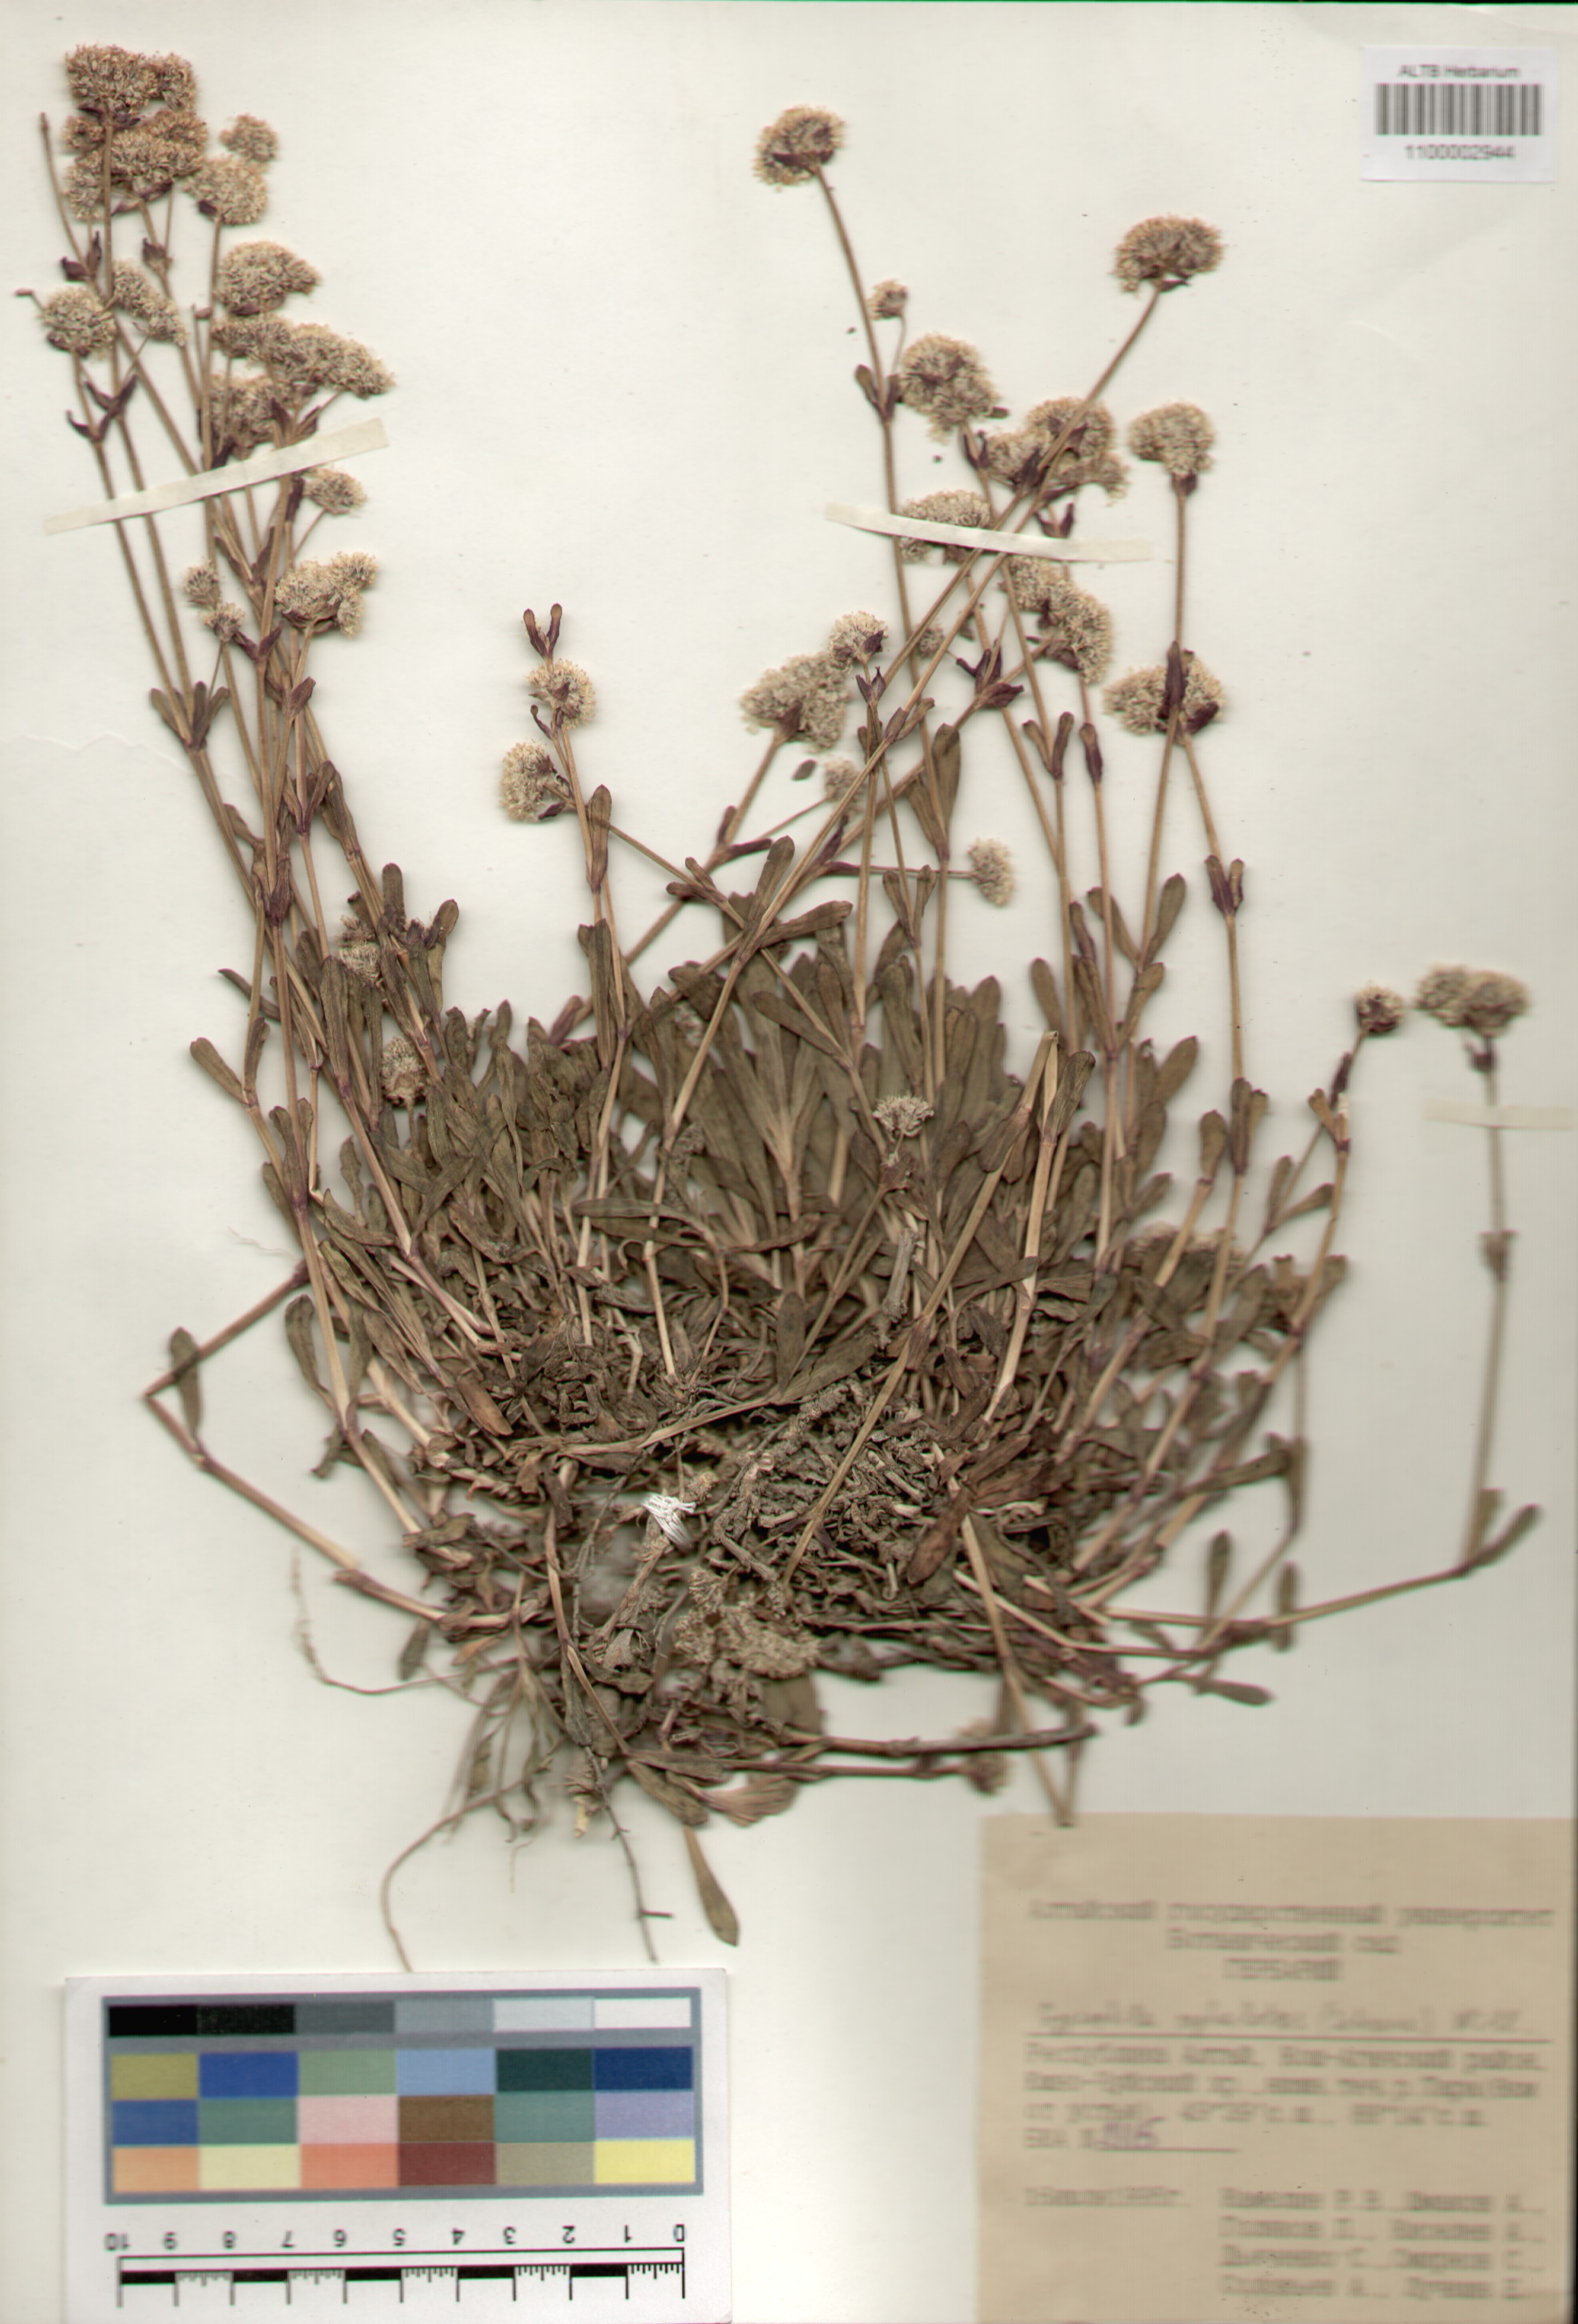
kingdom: Plantae
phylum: Tracheophyta
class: Magnoliopsida
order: Caryophyllales
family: Caryophyllaceae
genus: Gypsophila
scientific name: Gypsophila cephalotes
